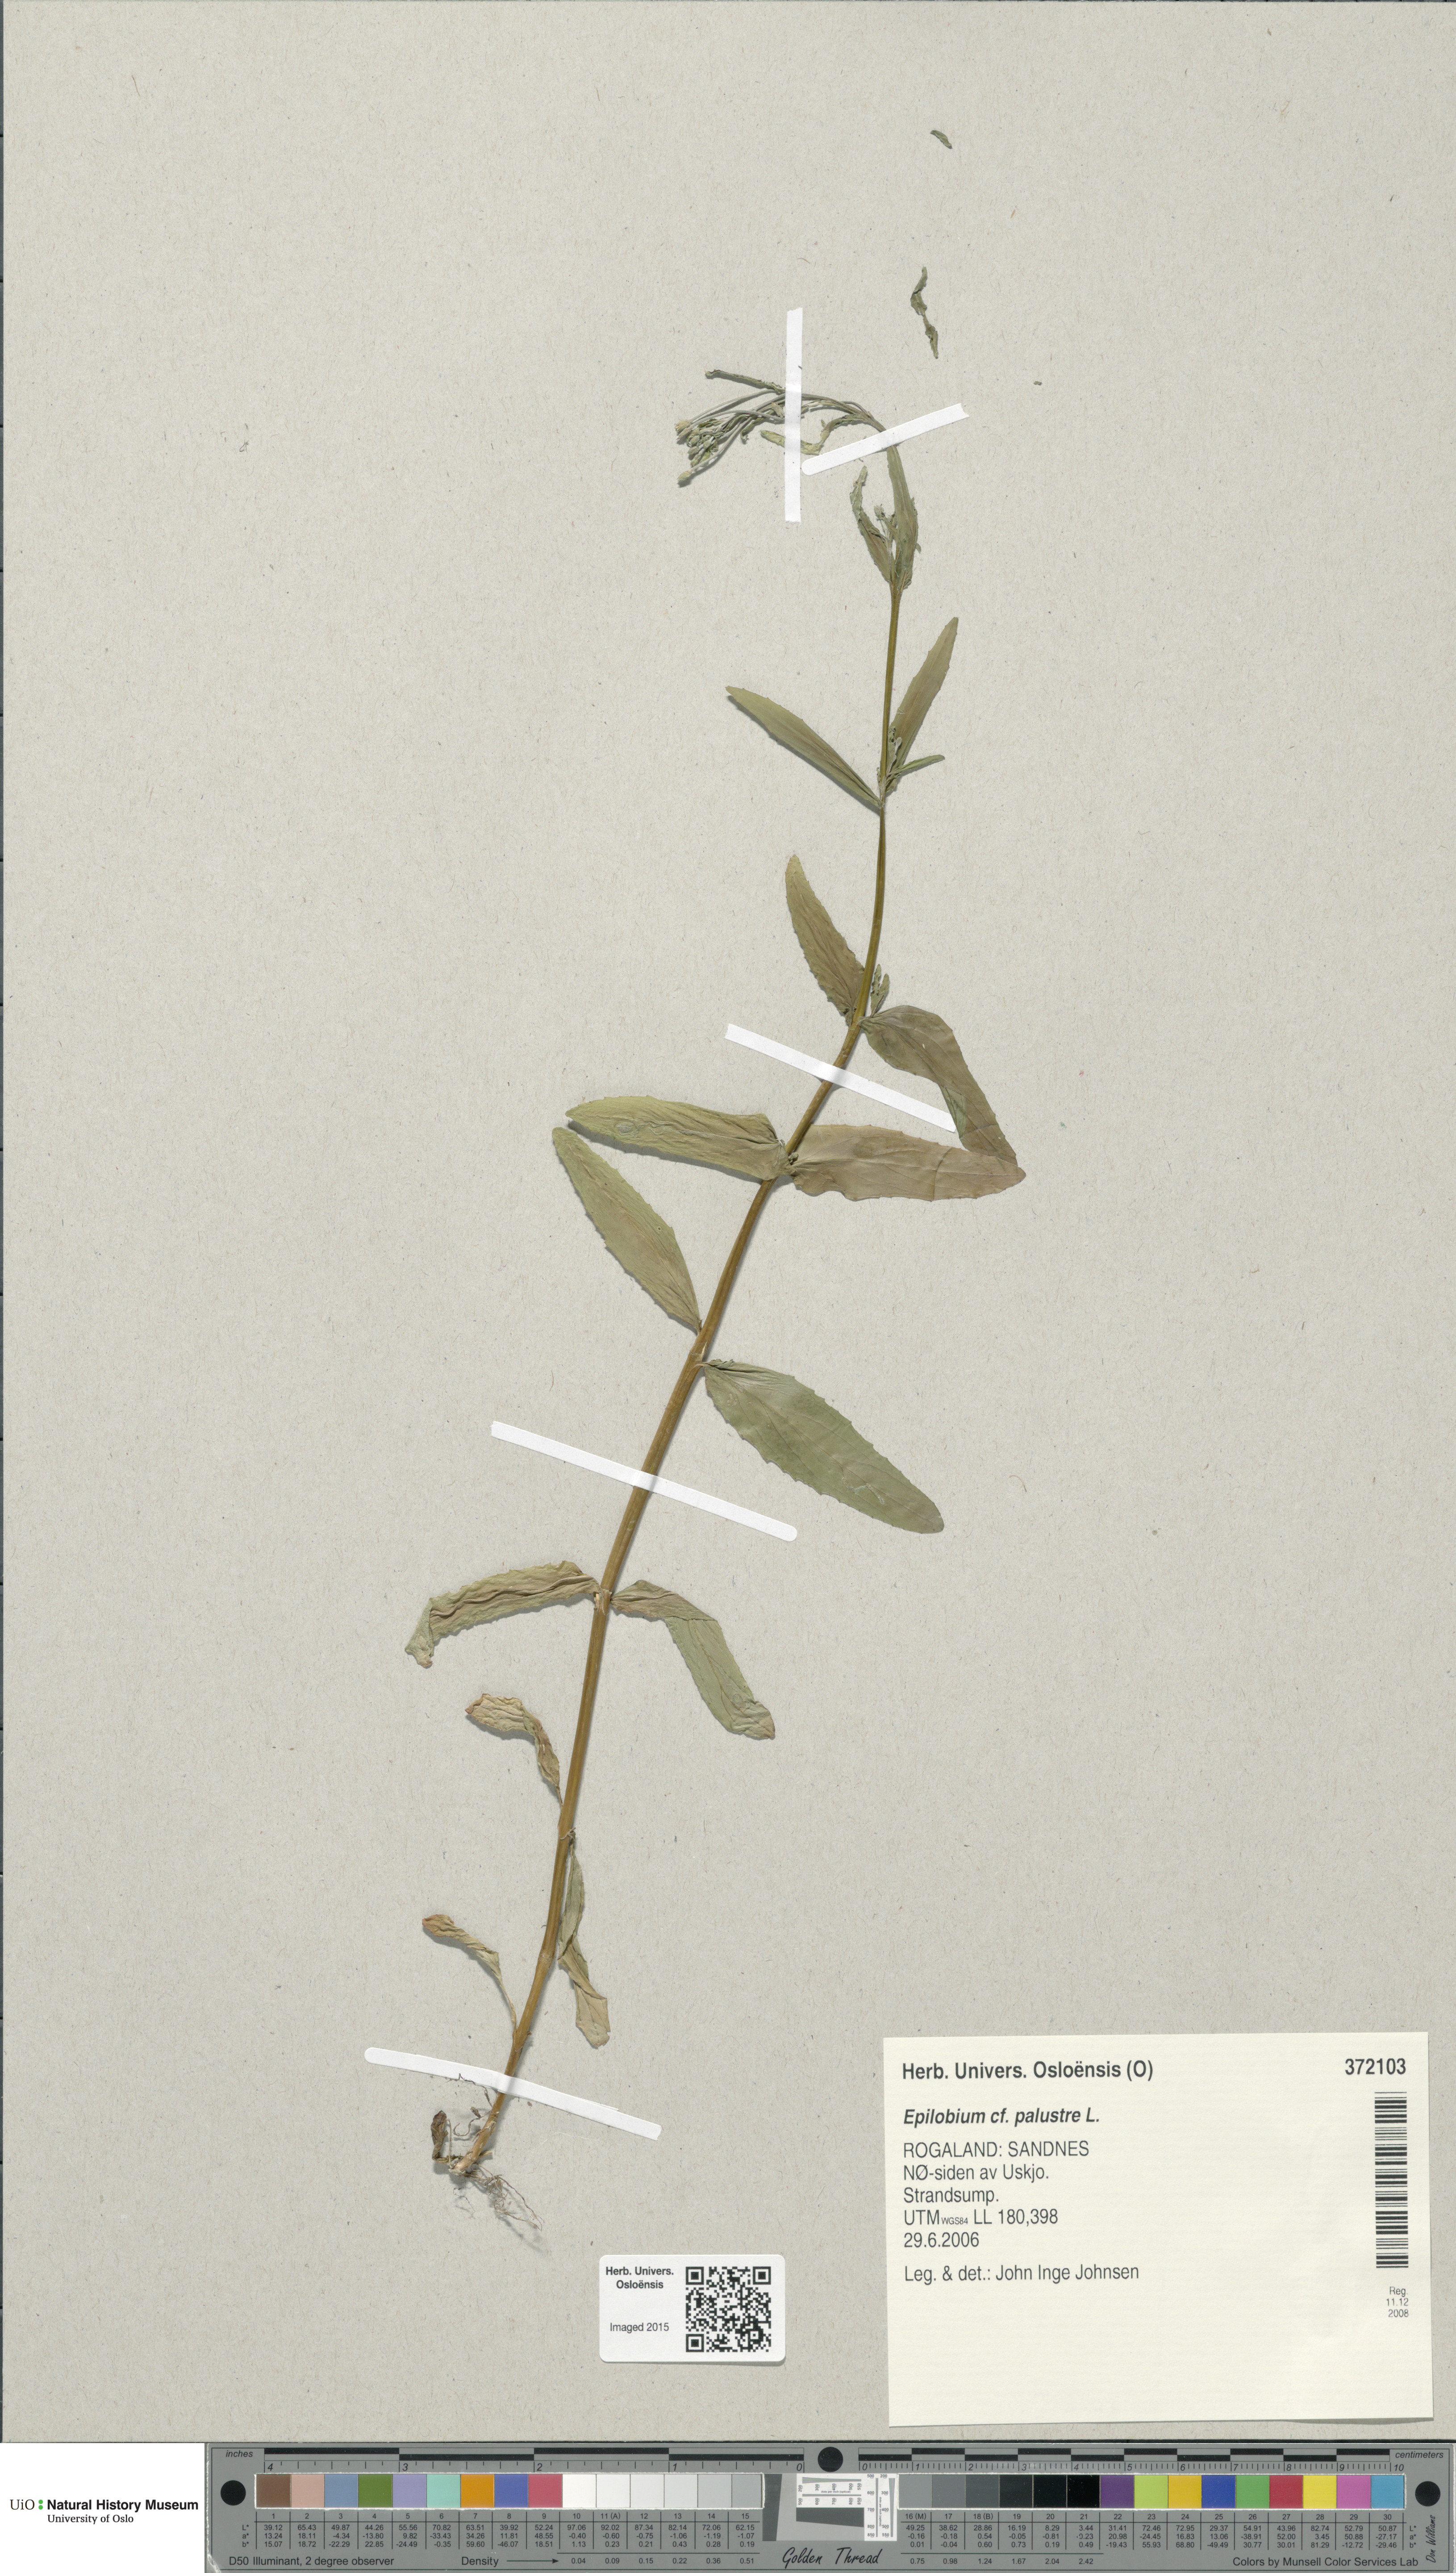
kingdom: Plantae
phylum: Tracheophyta
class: Magnoliopsida
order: Myrtales
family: Onagraceae
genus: Epilobium
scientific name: Epilobium palustre
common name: Marsh willowherb
